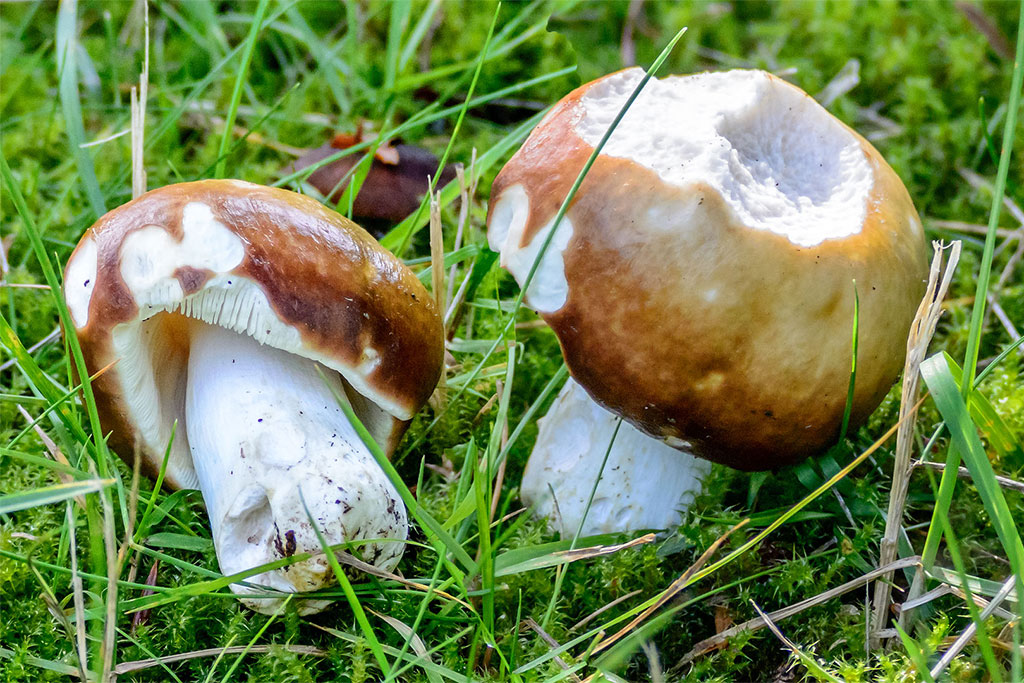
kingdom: Fungi
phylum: Basidiomycota
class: Agaricomycetes
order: Russulales
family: Russulaceae
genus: Russula
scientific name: Russula integra
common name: mandel-skørhat
